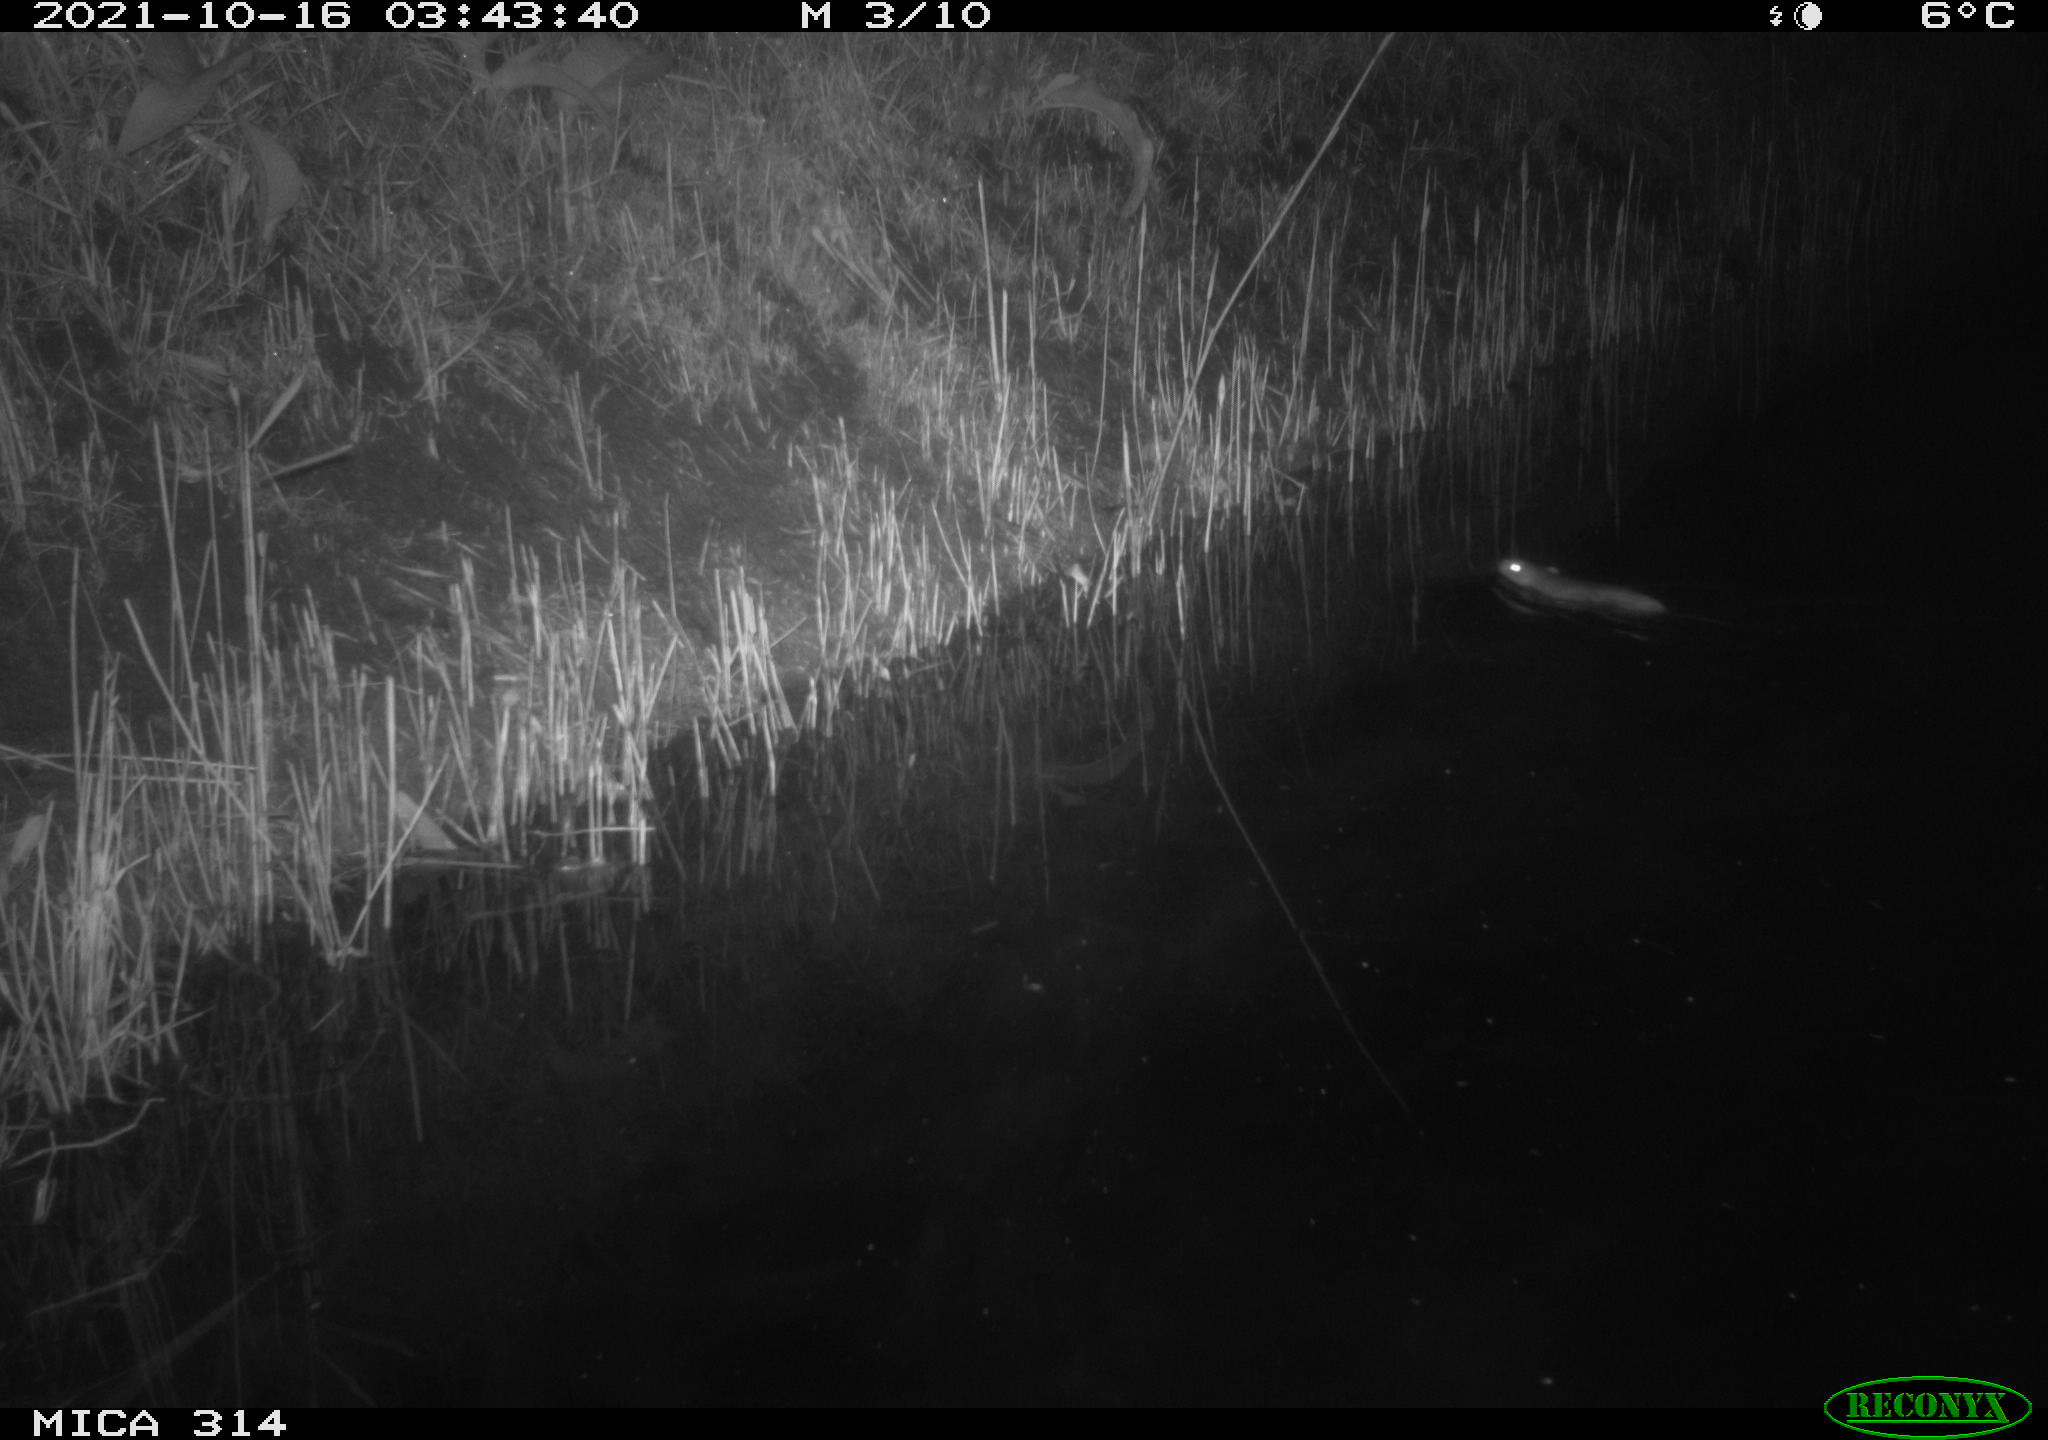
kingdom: Animalia
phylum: Chordata
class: Mammalia
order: Rodentia
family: Muridae
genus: Rattus
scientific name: Rattus norvegicus
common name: Brown rat
